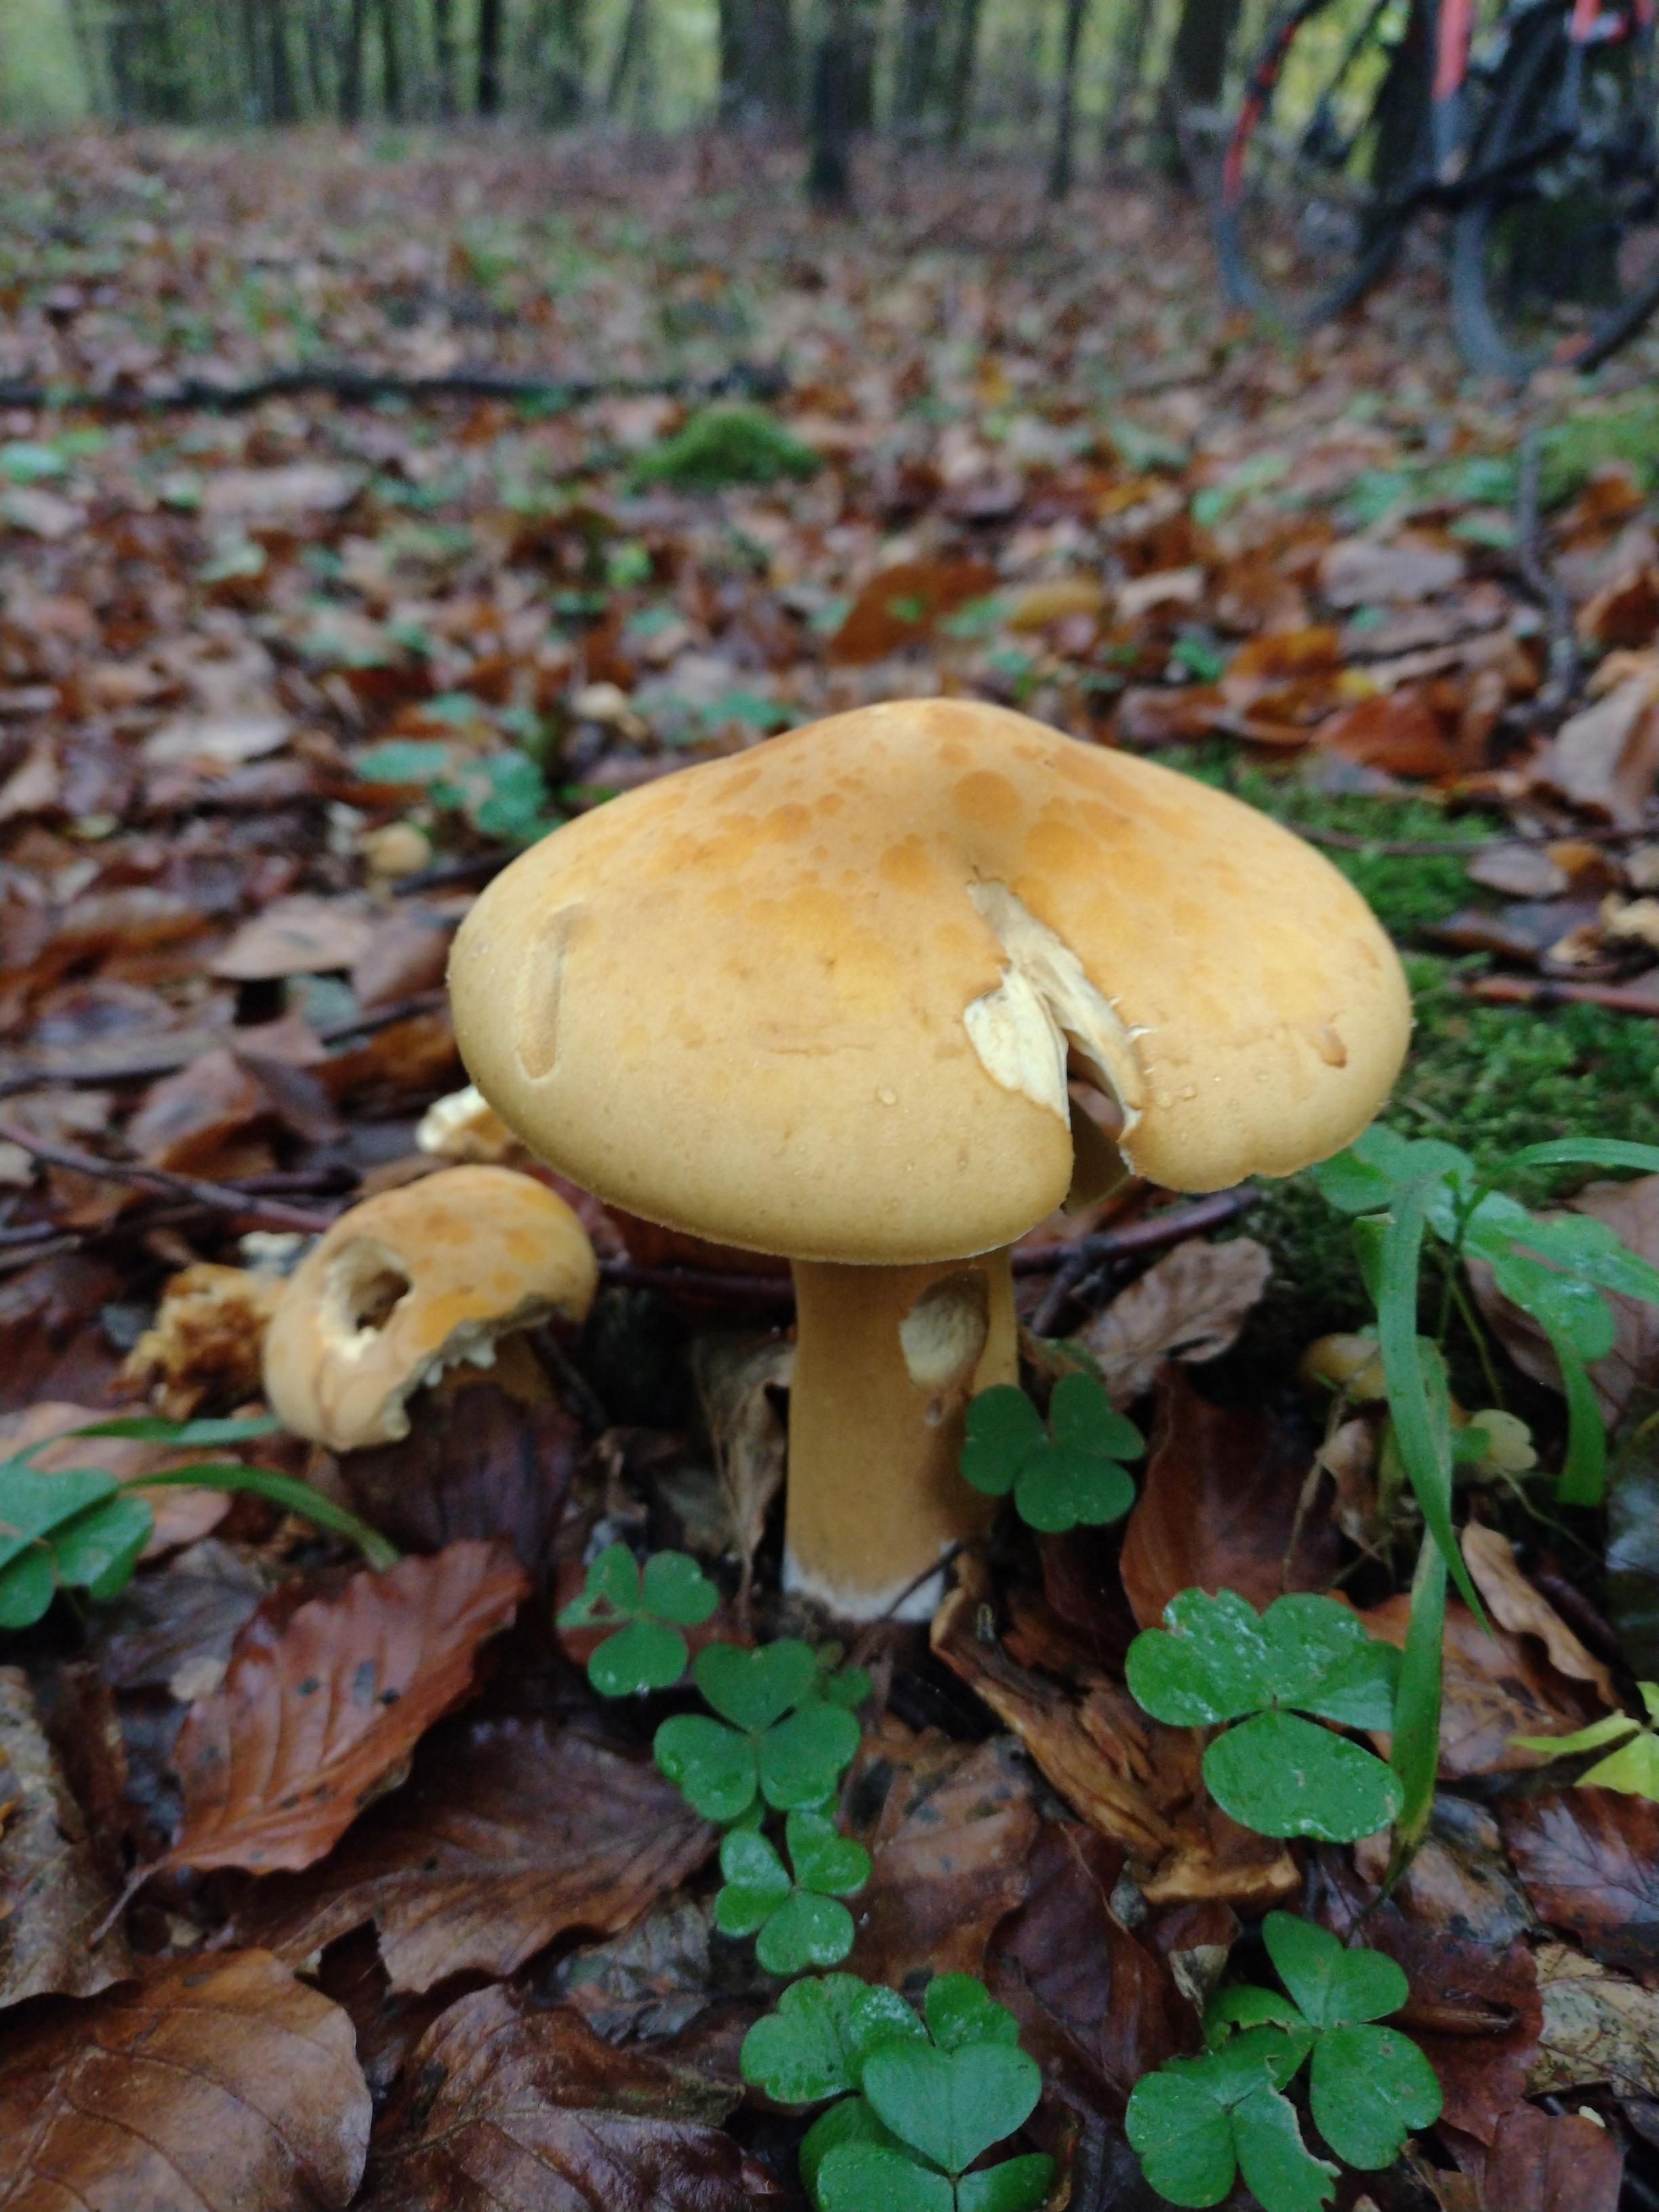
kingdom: Fungi
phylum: Basidiomycota
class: Agaricomycetes
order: Agaricales
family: Tricholomataceae
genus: Phaeolepiota
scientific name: Phaeolepiota aurea
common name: gyldenhat
